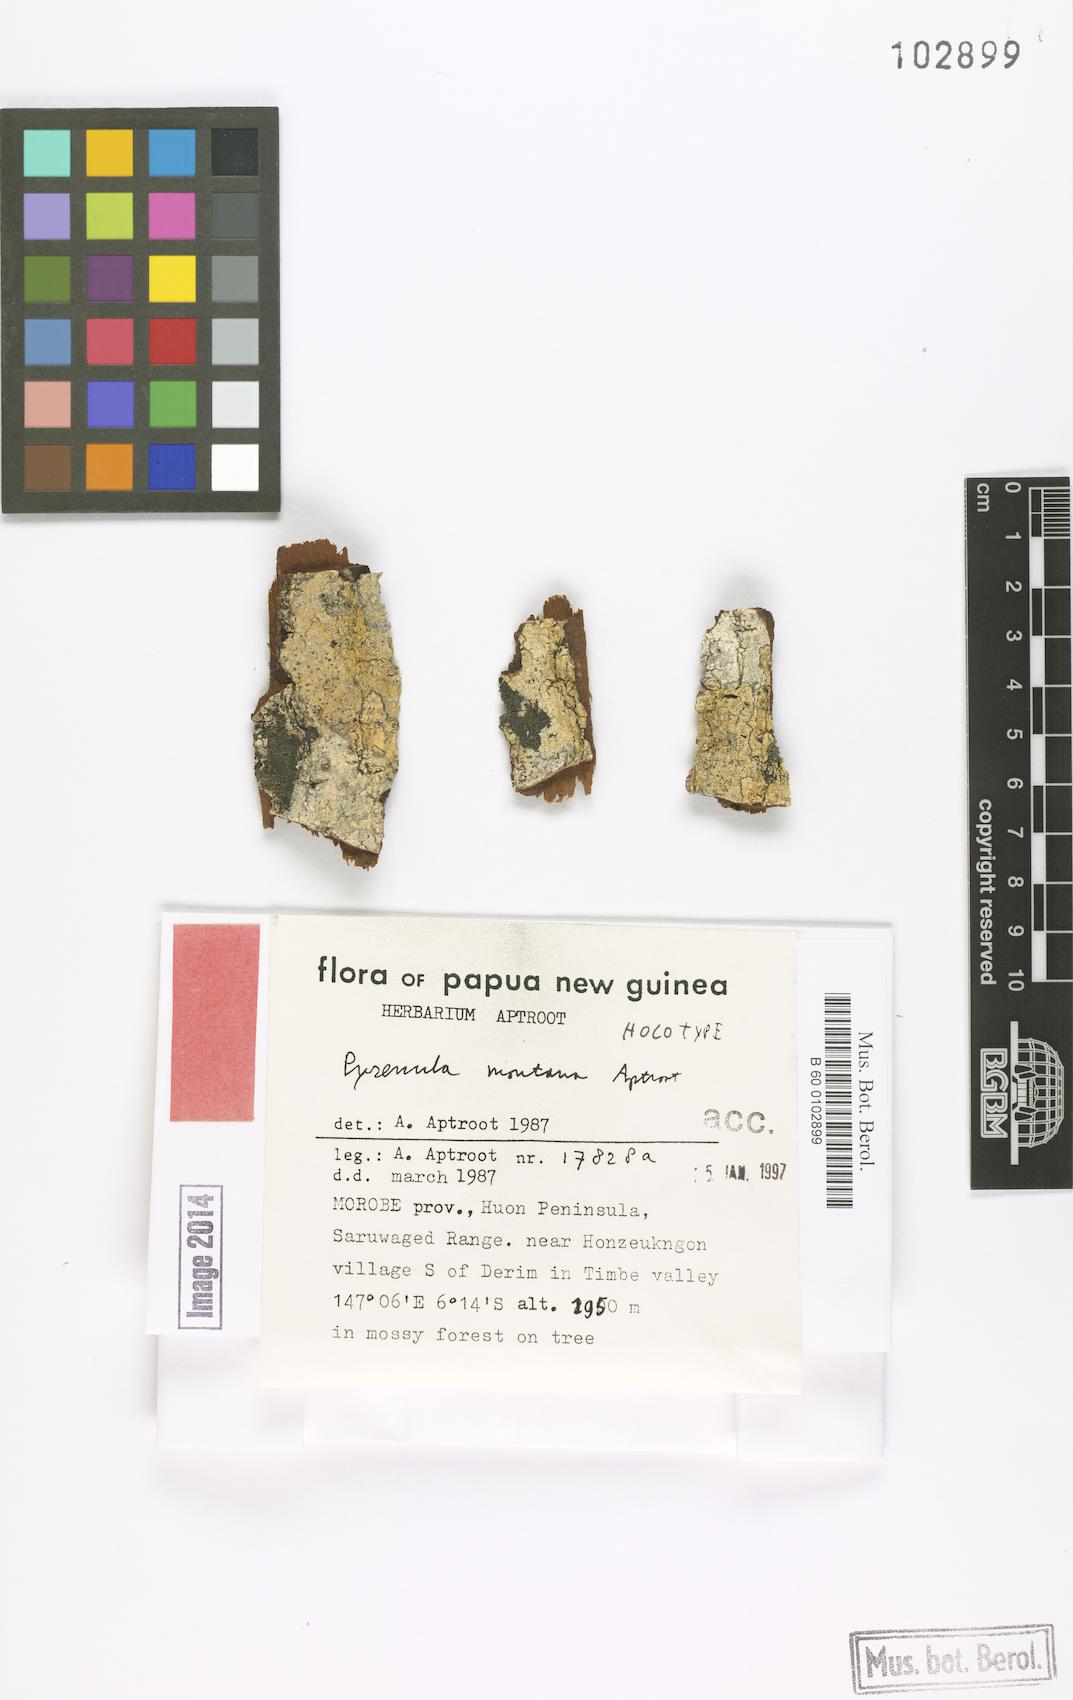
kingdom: Fungi
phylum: Ascomycota
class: Eurotiomycetes
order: Pyrenulales
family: Pyrenulaceae
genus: Pyrenula
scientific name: Pyrenula montagnei
